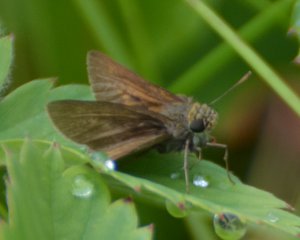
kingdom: Animalia
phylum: Arthropoda
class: Insecta
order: Lepidoptera
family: Hesperiidae
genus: Euphyes
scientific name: Euphyes vestris
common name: Dun Skipper
